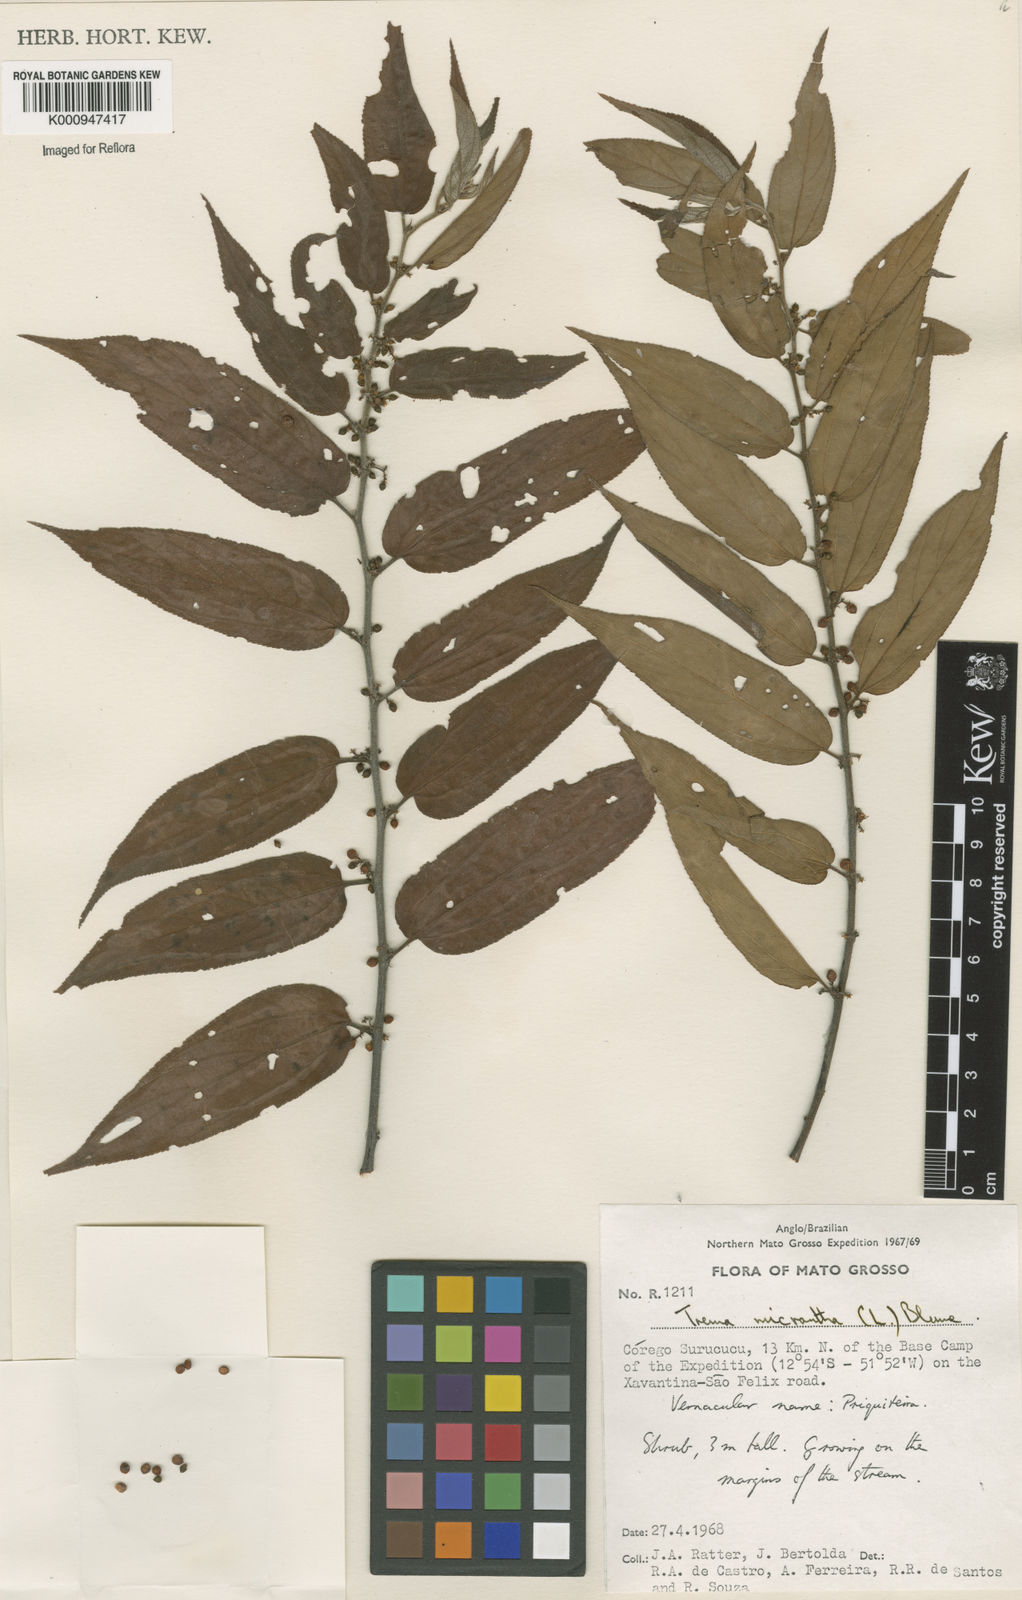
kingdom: Plantae
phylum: Tracheophyta
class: Magnoliopsida
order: Rosales
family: Cannabaceae
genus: Trema
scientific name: Trema micranthum
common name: Jamaican nettletree
